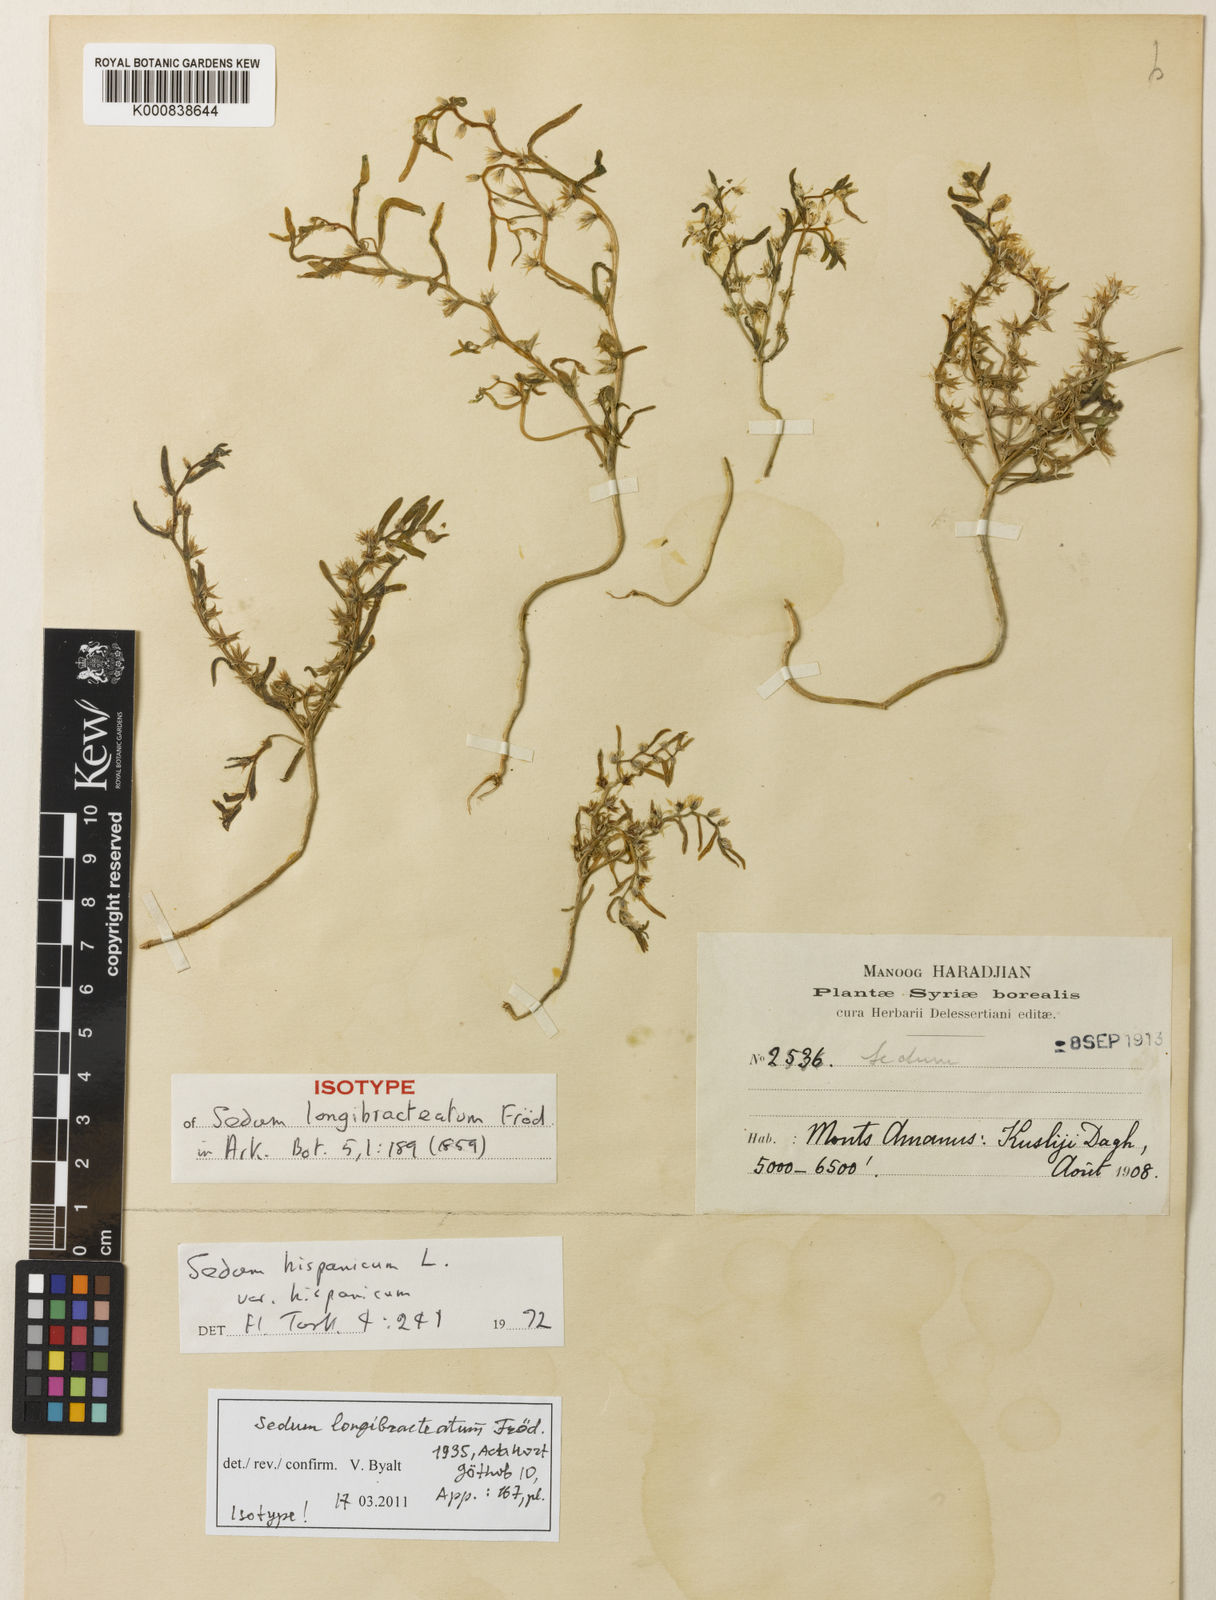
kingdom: Plantae
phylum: Tracheophyta
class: Magnoliopsida
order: Saxifragales
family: Crassulaceae
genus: Sedum
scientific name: Sedum hispanicum
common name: Spanish stonecrop
